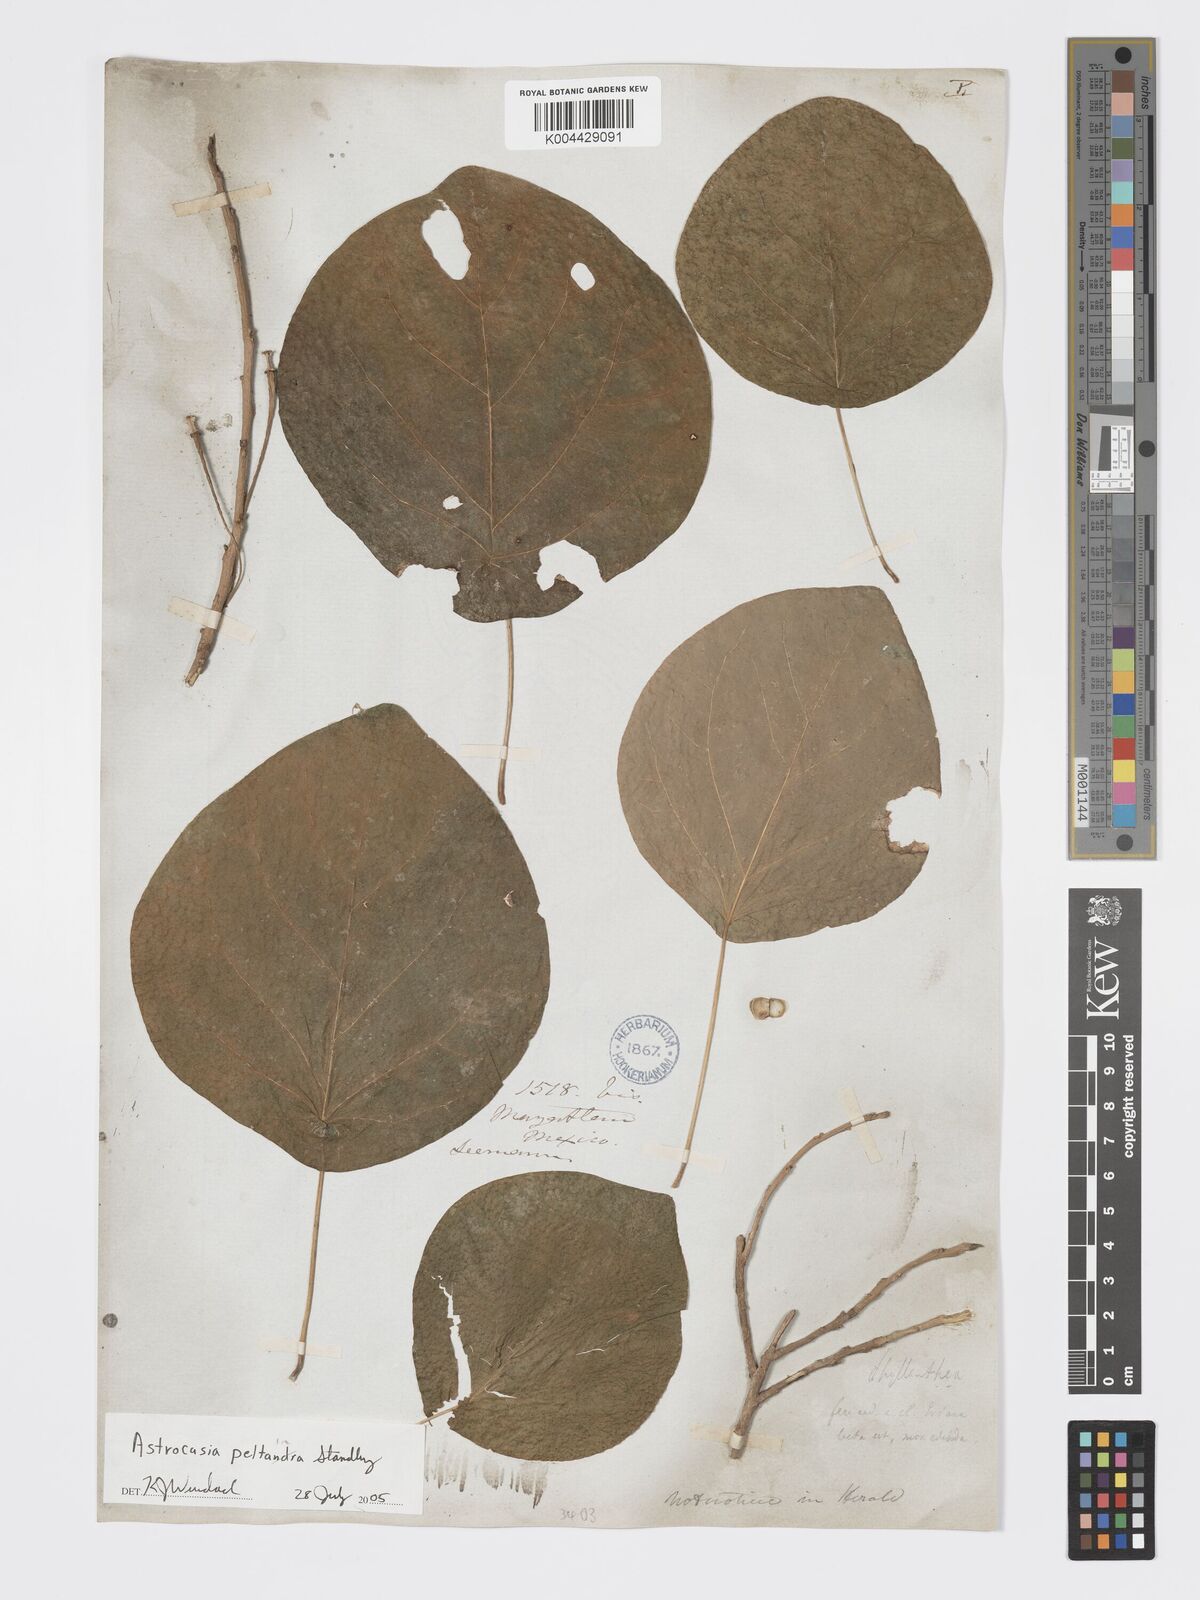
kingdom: Plantae
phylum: Tracheophyta
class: Magnoliopsida
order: Malpighiales
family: Phyllanthaceae
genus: Astrocasia
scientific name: Astrocasia peltata
